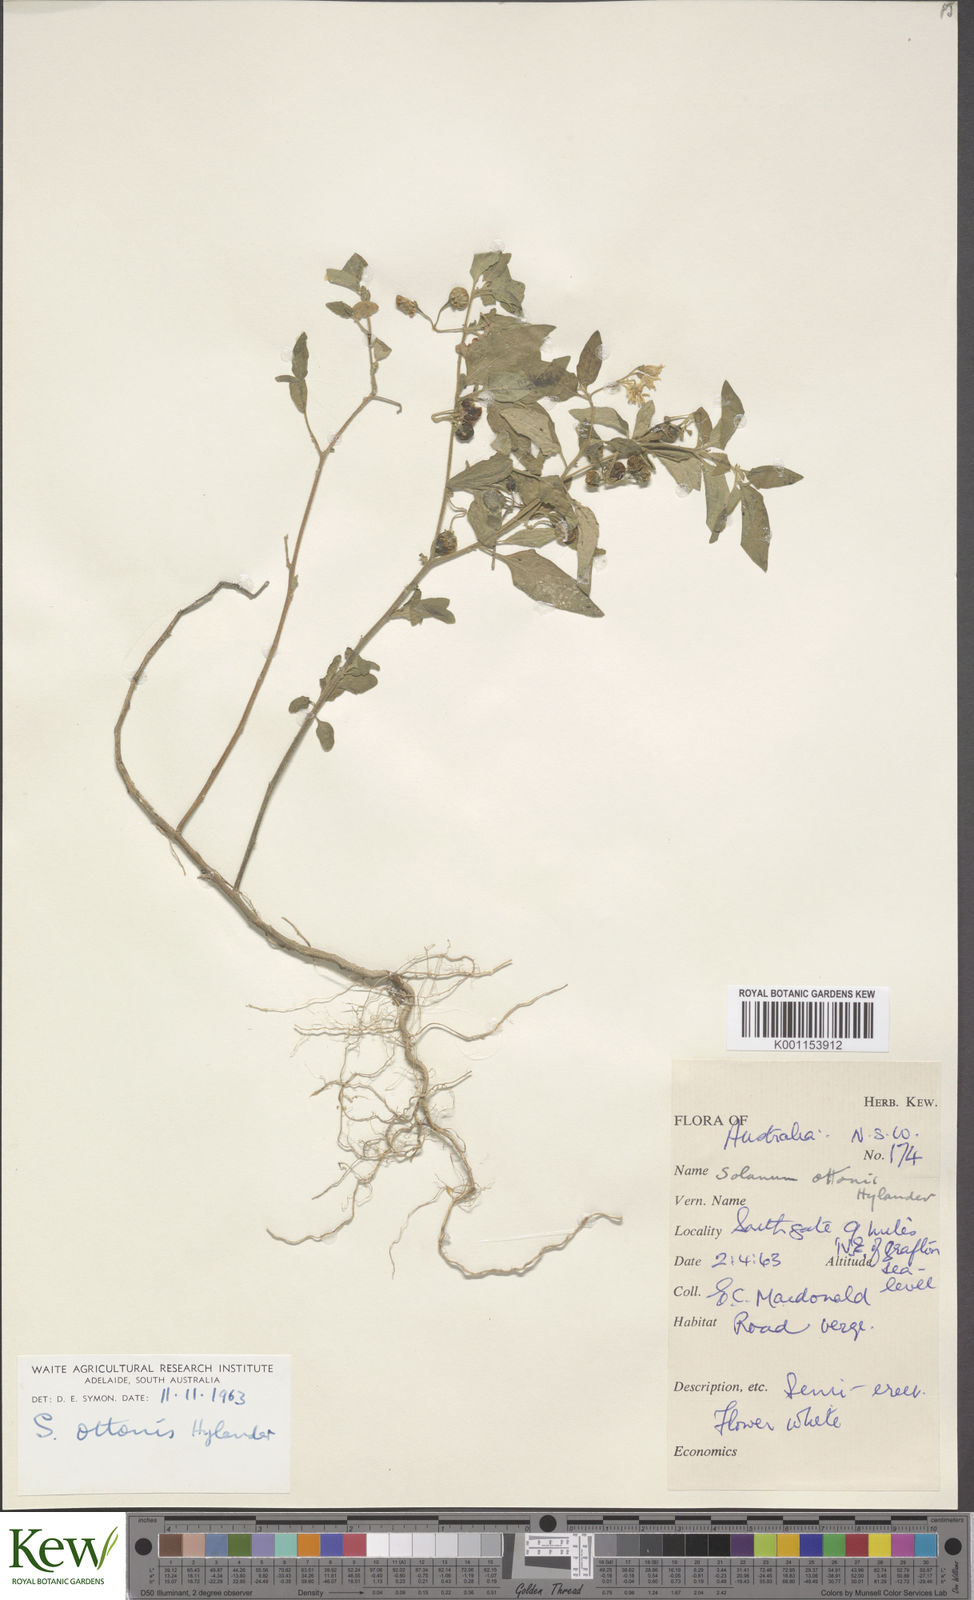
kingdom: Plantae
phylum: Tracheophyta
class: Magnoliopsida
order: Solanales
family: Solanaceae
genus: Solanum
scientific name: Solanum chenopodioides
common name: Tall nightshade
